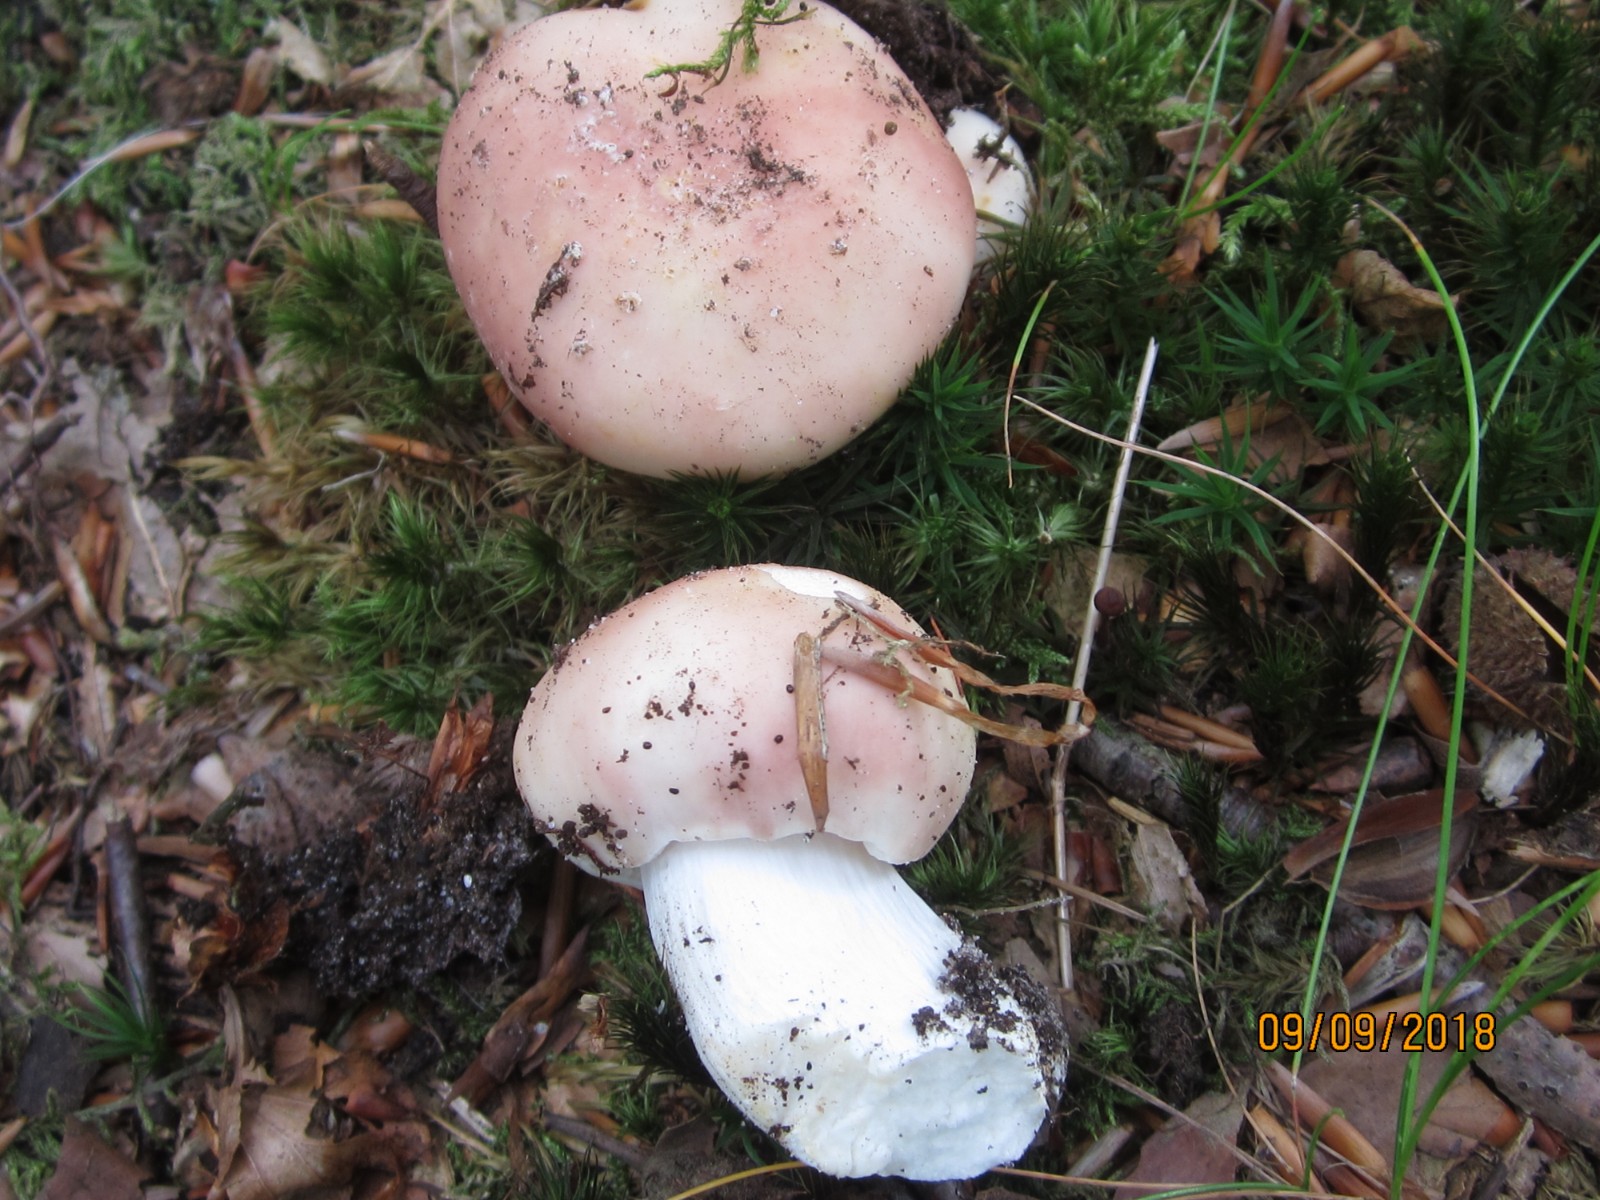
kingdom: Fungi
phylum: Basidiomycota
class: Agaricomycetes
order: Russulales
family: Russulaceae
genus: Russula
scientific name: Russula vesca
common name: spiselig skørhat
